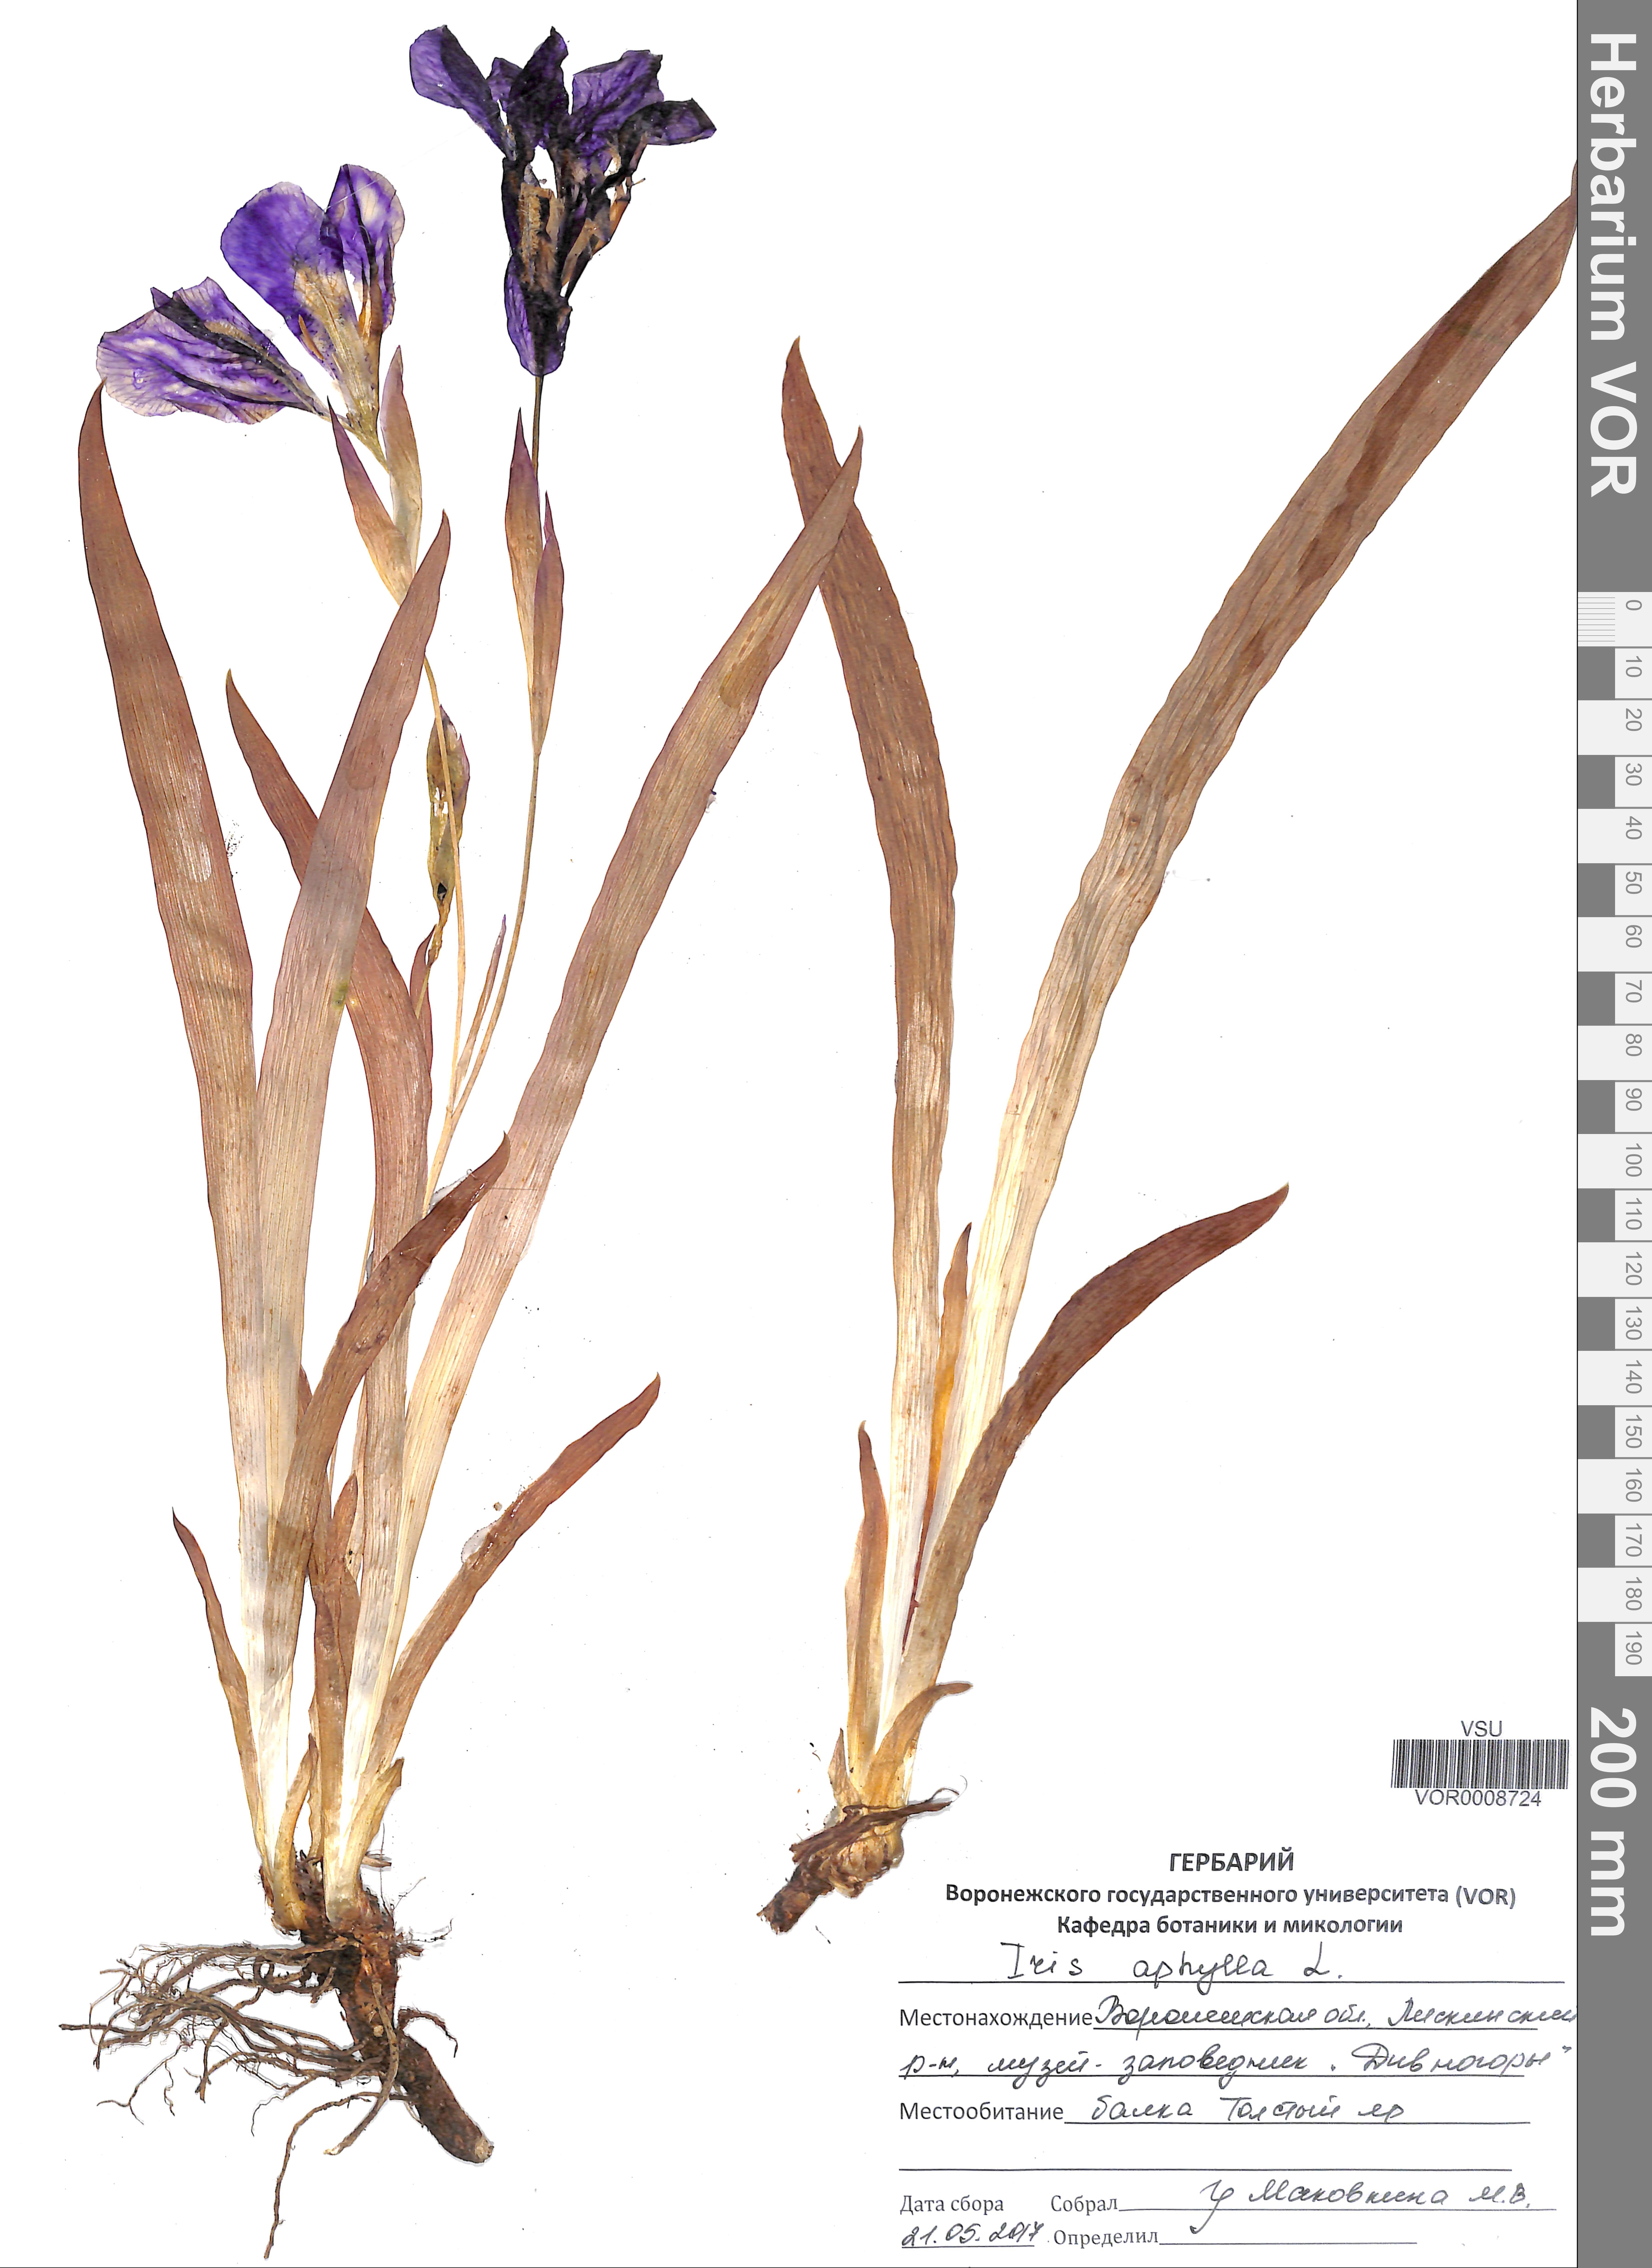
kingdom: Plantae
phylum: Tracheophyta
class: Liliopsida
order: Asparagales
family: Iridaceae
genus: Iris
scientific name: Iris aphylla
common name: Stool iris
